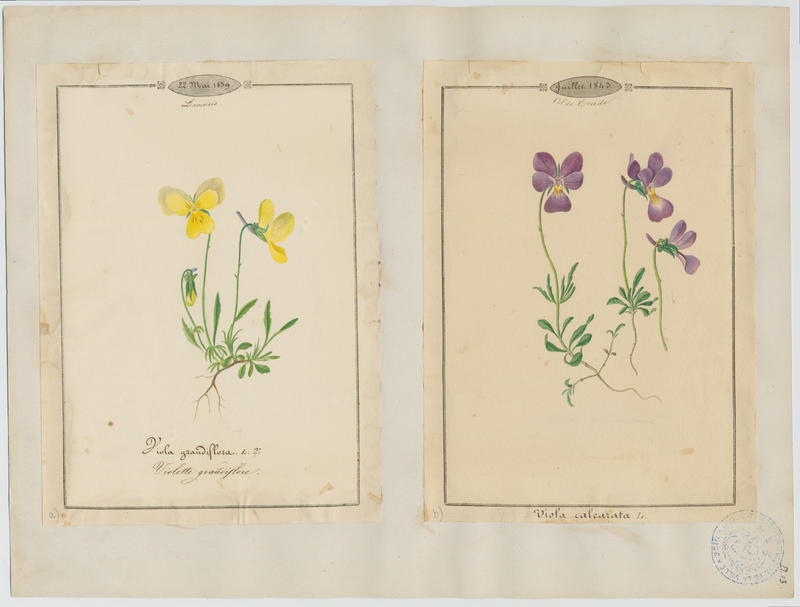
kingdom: Plantae
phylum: Tracheophyta
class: Magnoliopsida
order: Malpighiales
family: Violaceae
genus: Viola
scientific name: Viola calcarata
